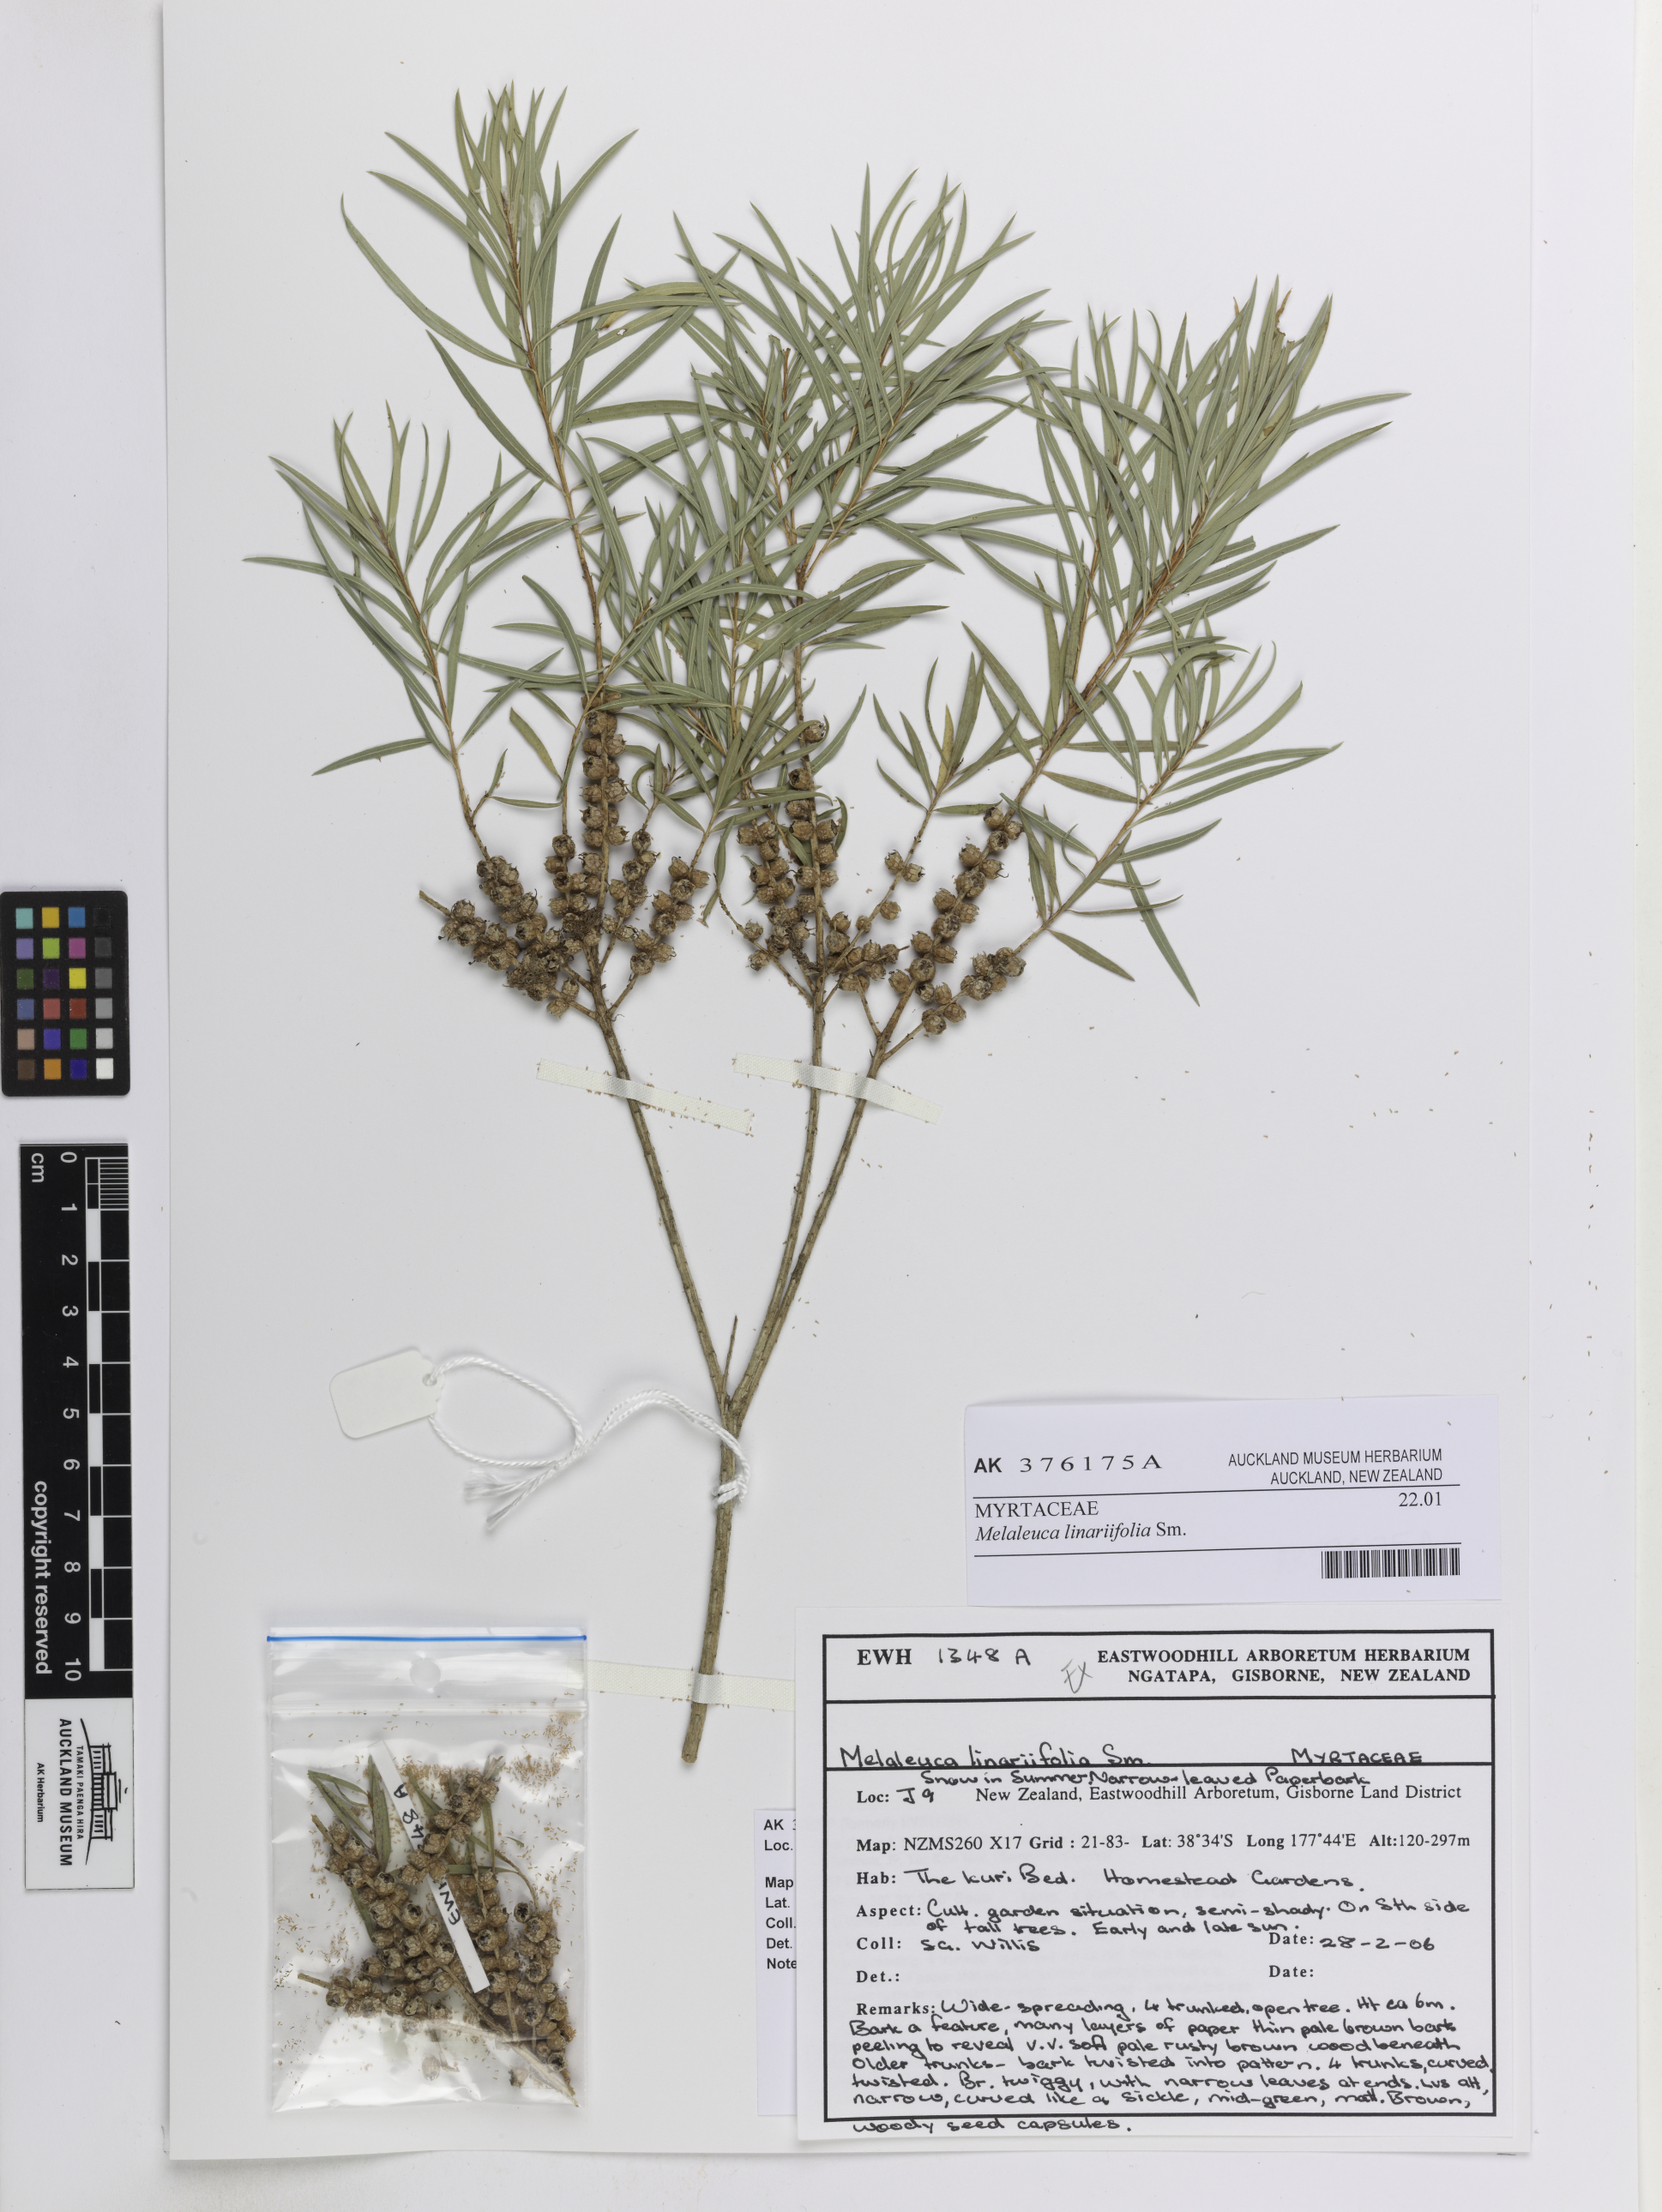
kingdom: Plantae
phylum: Tracheophyta
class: Magnoliopsida
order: Myrtales
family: Myrtaceae
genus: Melaleuca
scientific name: Melaleuca linariifolia
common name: Cajeput tree
